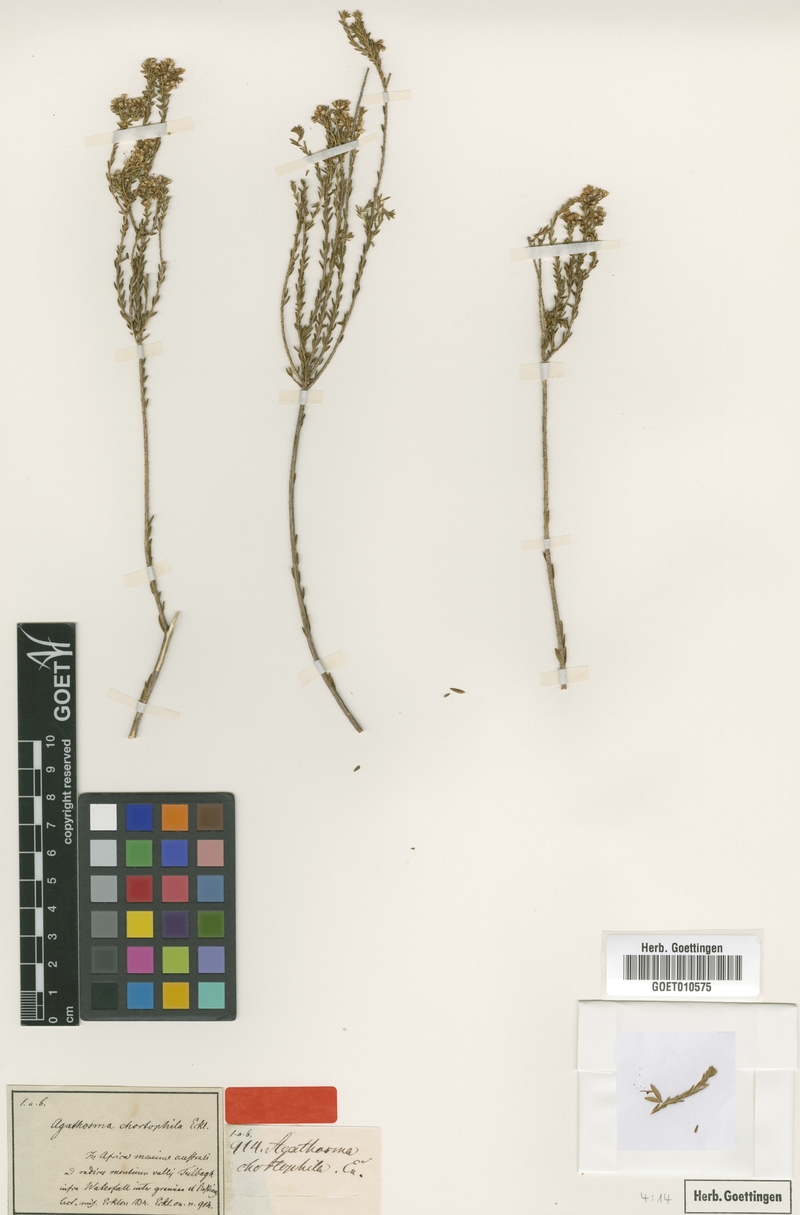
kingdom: Plantae
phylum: Tracheophyta
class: Magnoliopsida
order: Sapindales
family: Rutaceae
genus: Agathosma
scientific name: Agathosma capensis
